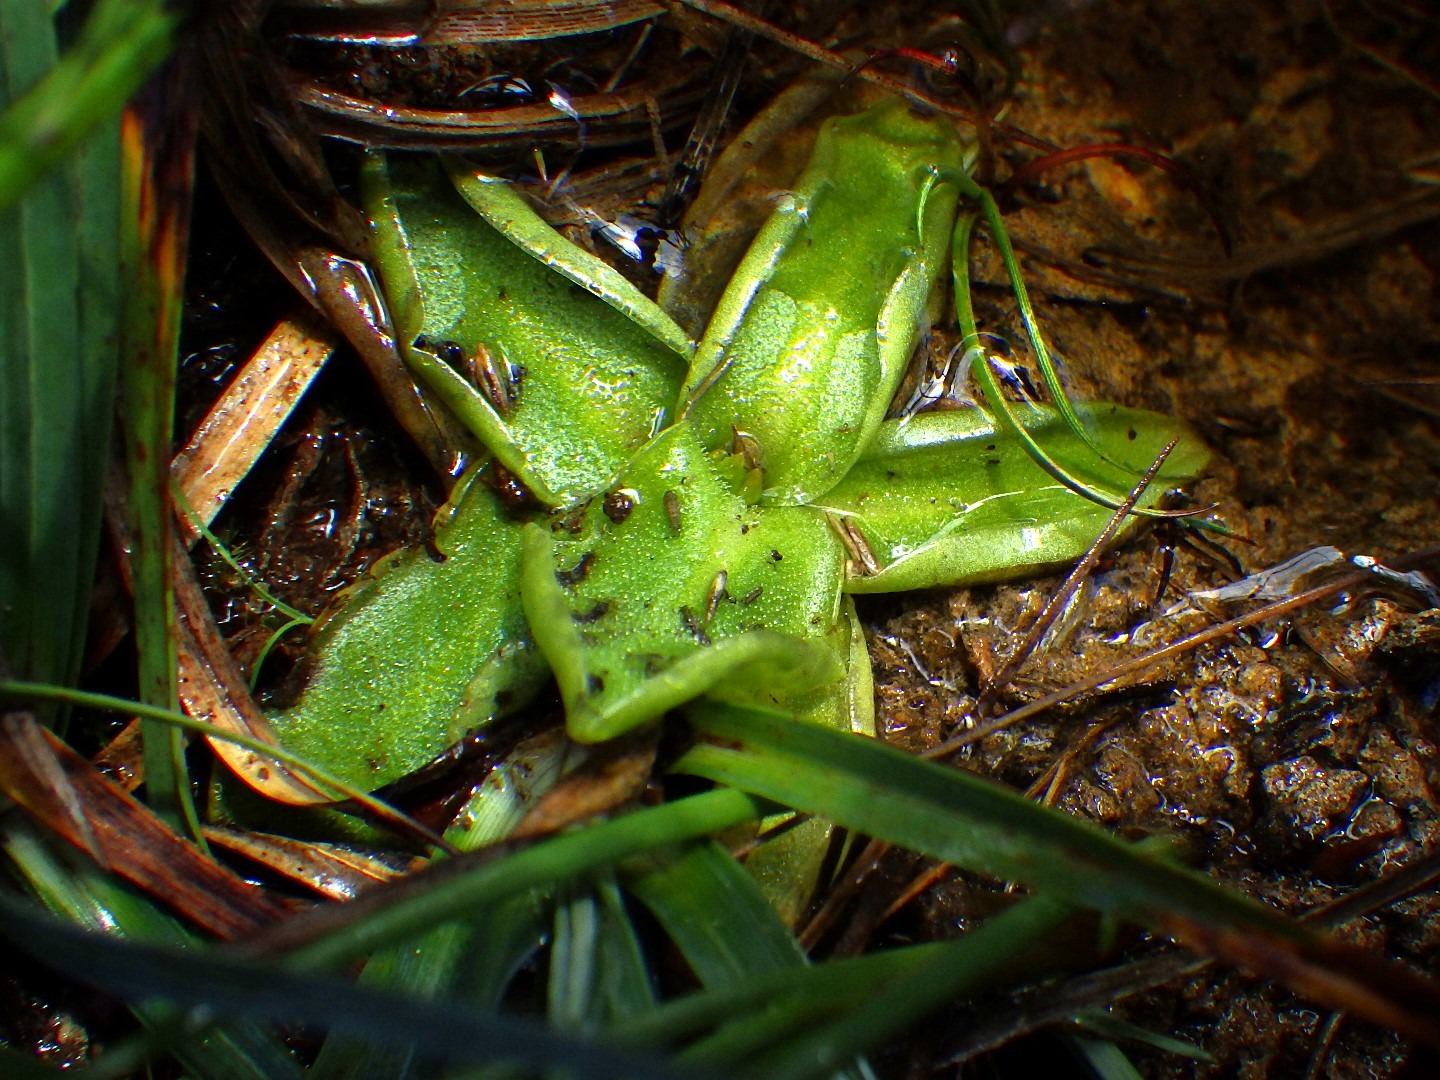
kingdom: Plantae
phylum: Tracheophyta
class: Magnoliopsida
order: Lamiales
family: Lentibulariaceae
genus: Pinguicula
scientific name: Pinguicula vulgaris
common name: Vibefedt
